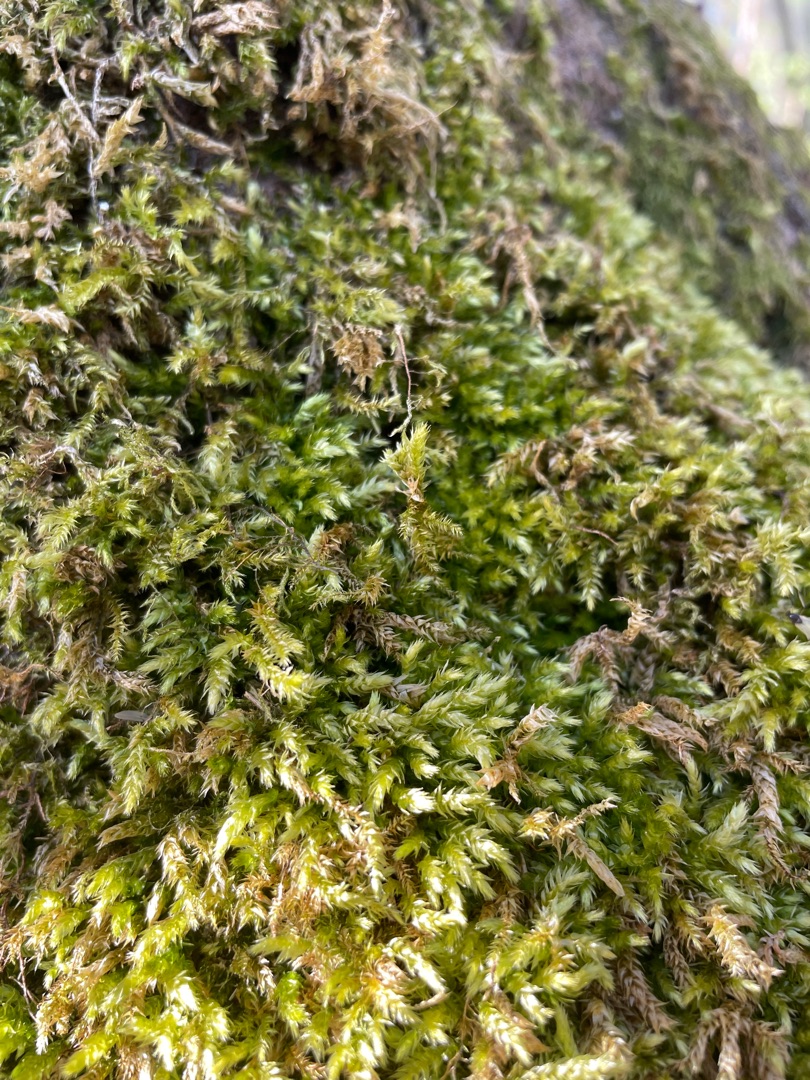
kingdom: Plantae
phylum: Bryophyta
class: Bryopsida
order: Hypnales
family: Brachytheciaceae
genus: Brachythecium
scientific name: Brachythecium rutabulum
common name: Almindelig kortkapsel
